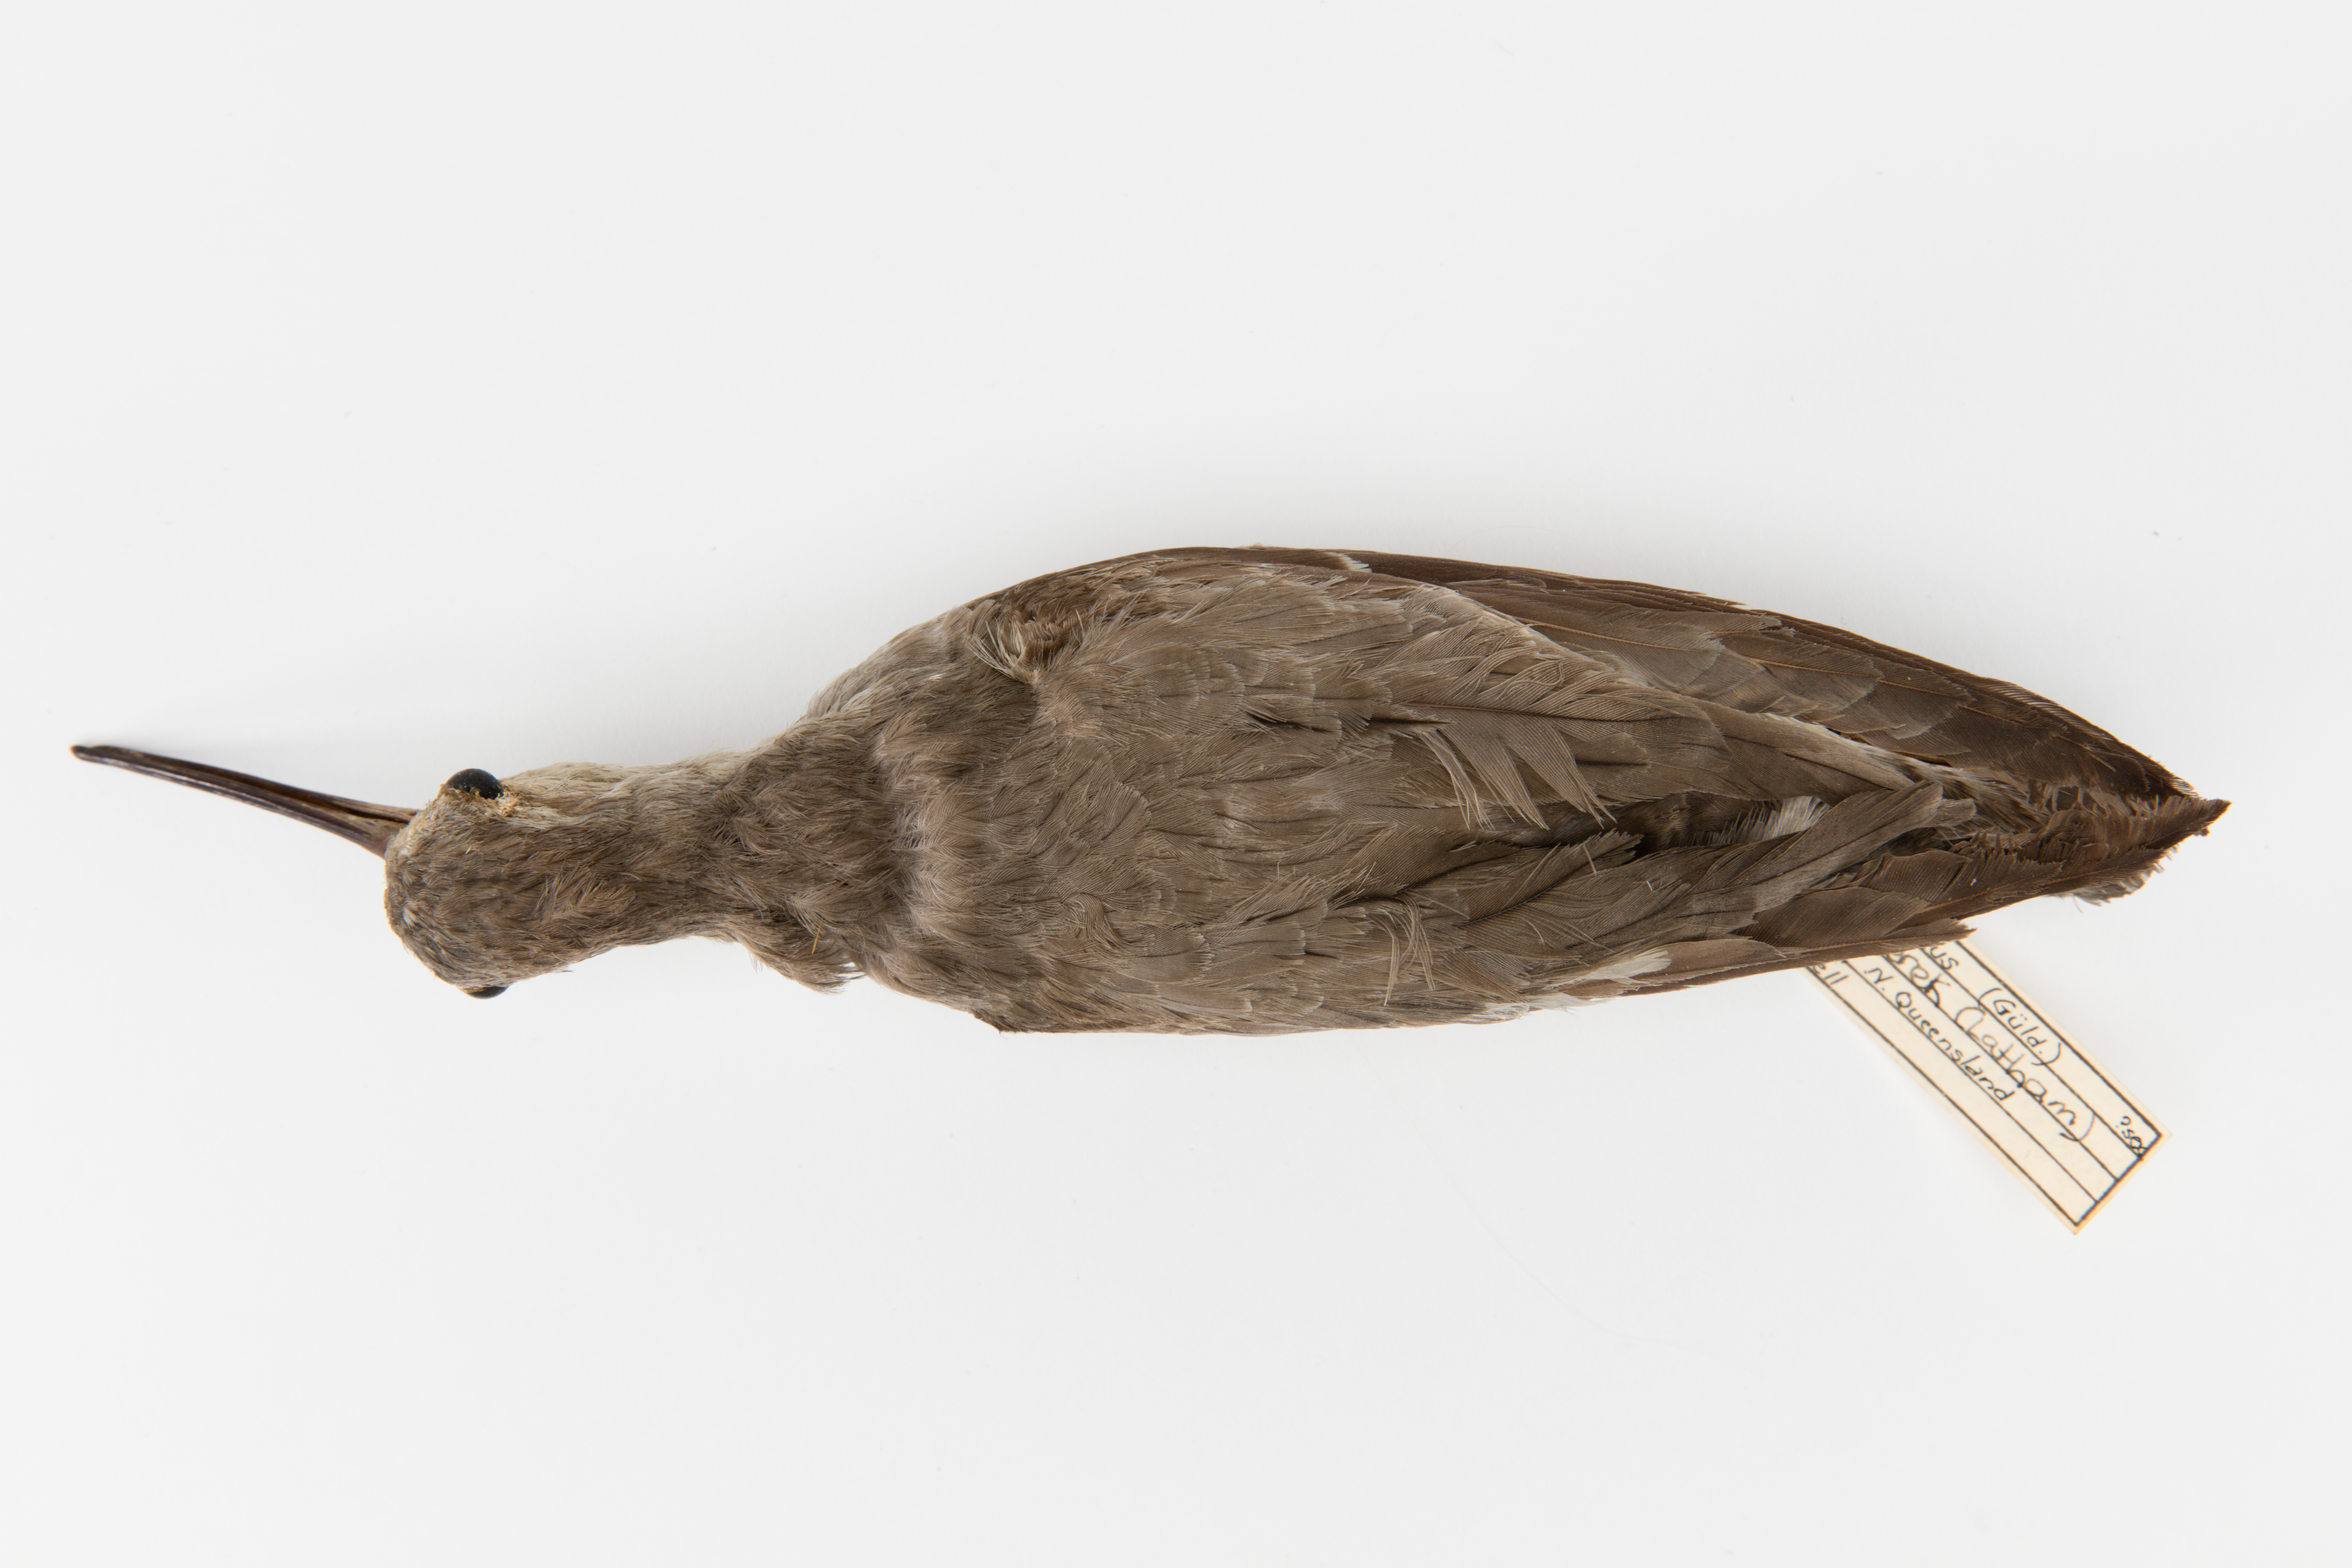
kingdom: Animalia
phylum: Chordata
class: Aves
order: Charadriiformes
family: Scolopacidae
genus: Xenus
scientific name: Xenus cinereus
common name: Terek sandpiper
